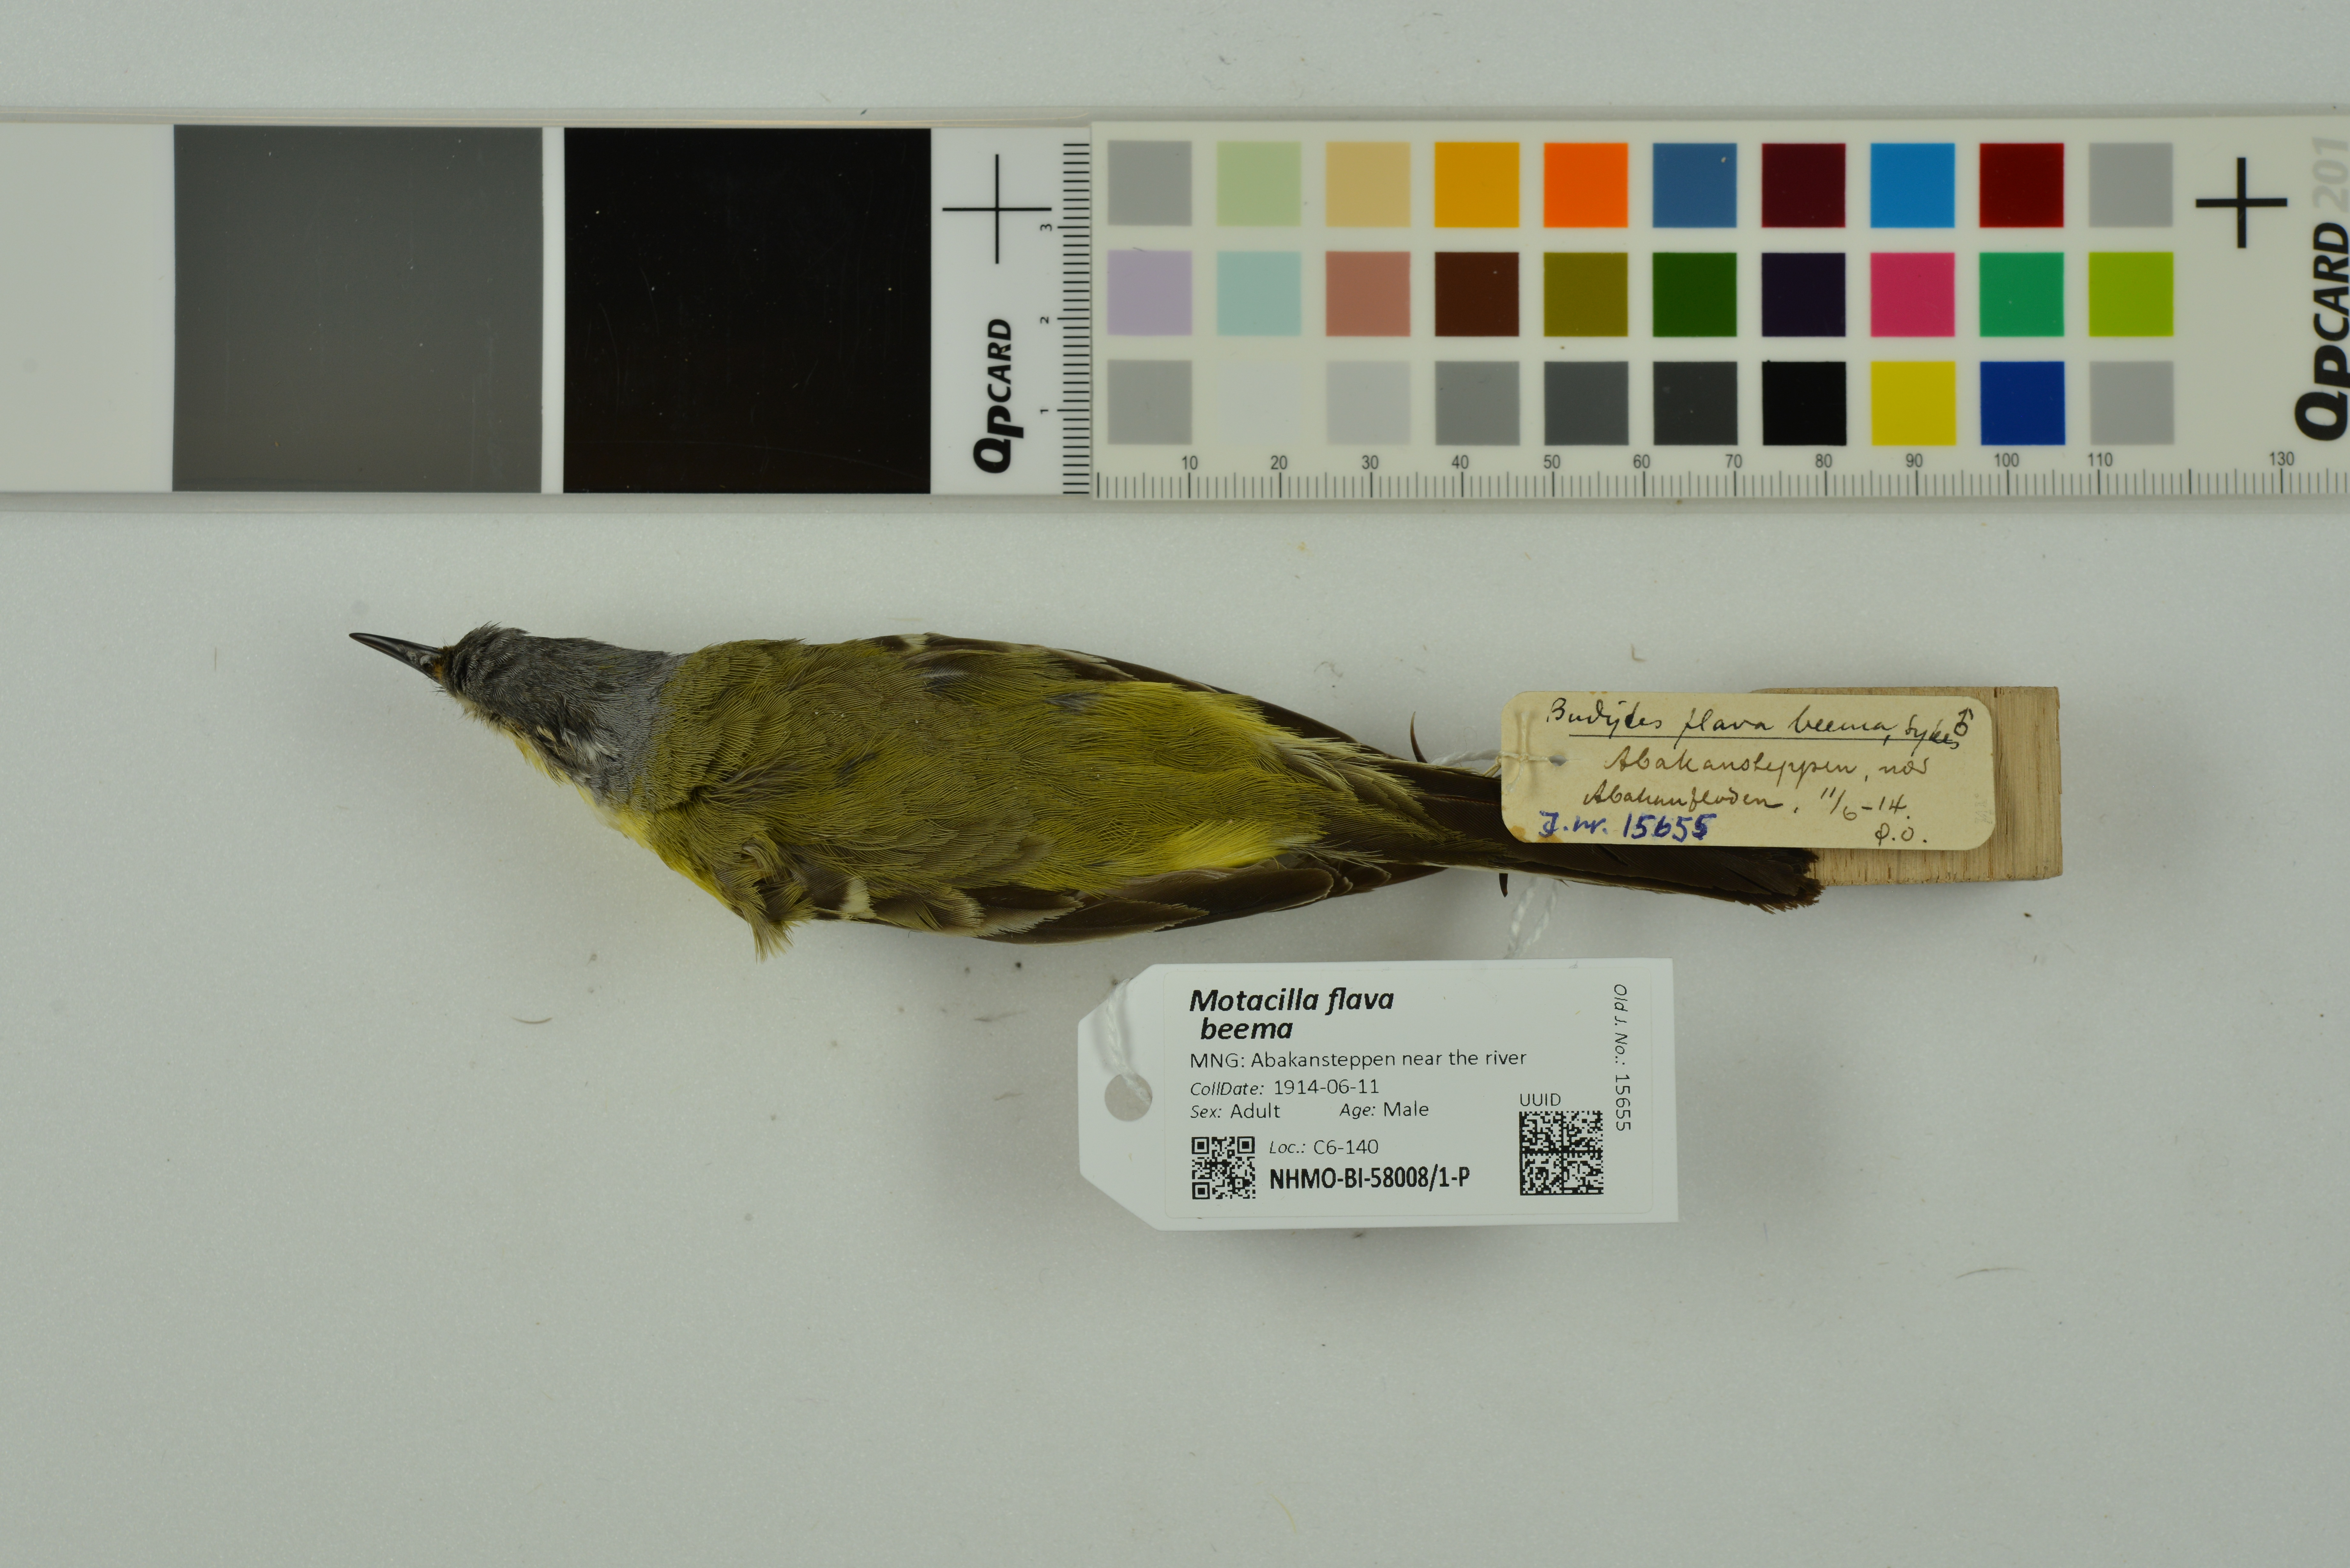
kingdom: Animalia
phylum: Chordata
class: Aves
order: Passeriformes
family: Motacillidae
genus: Motacilla
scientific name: Motacilla flava
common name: Western yellow wagtail
